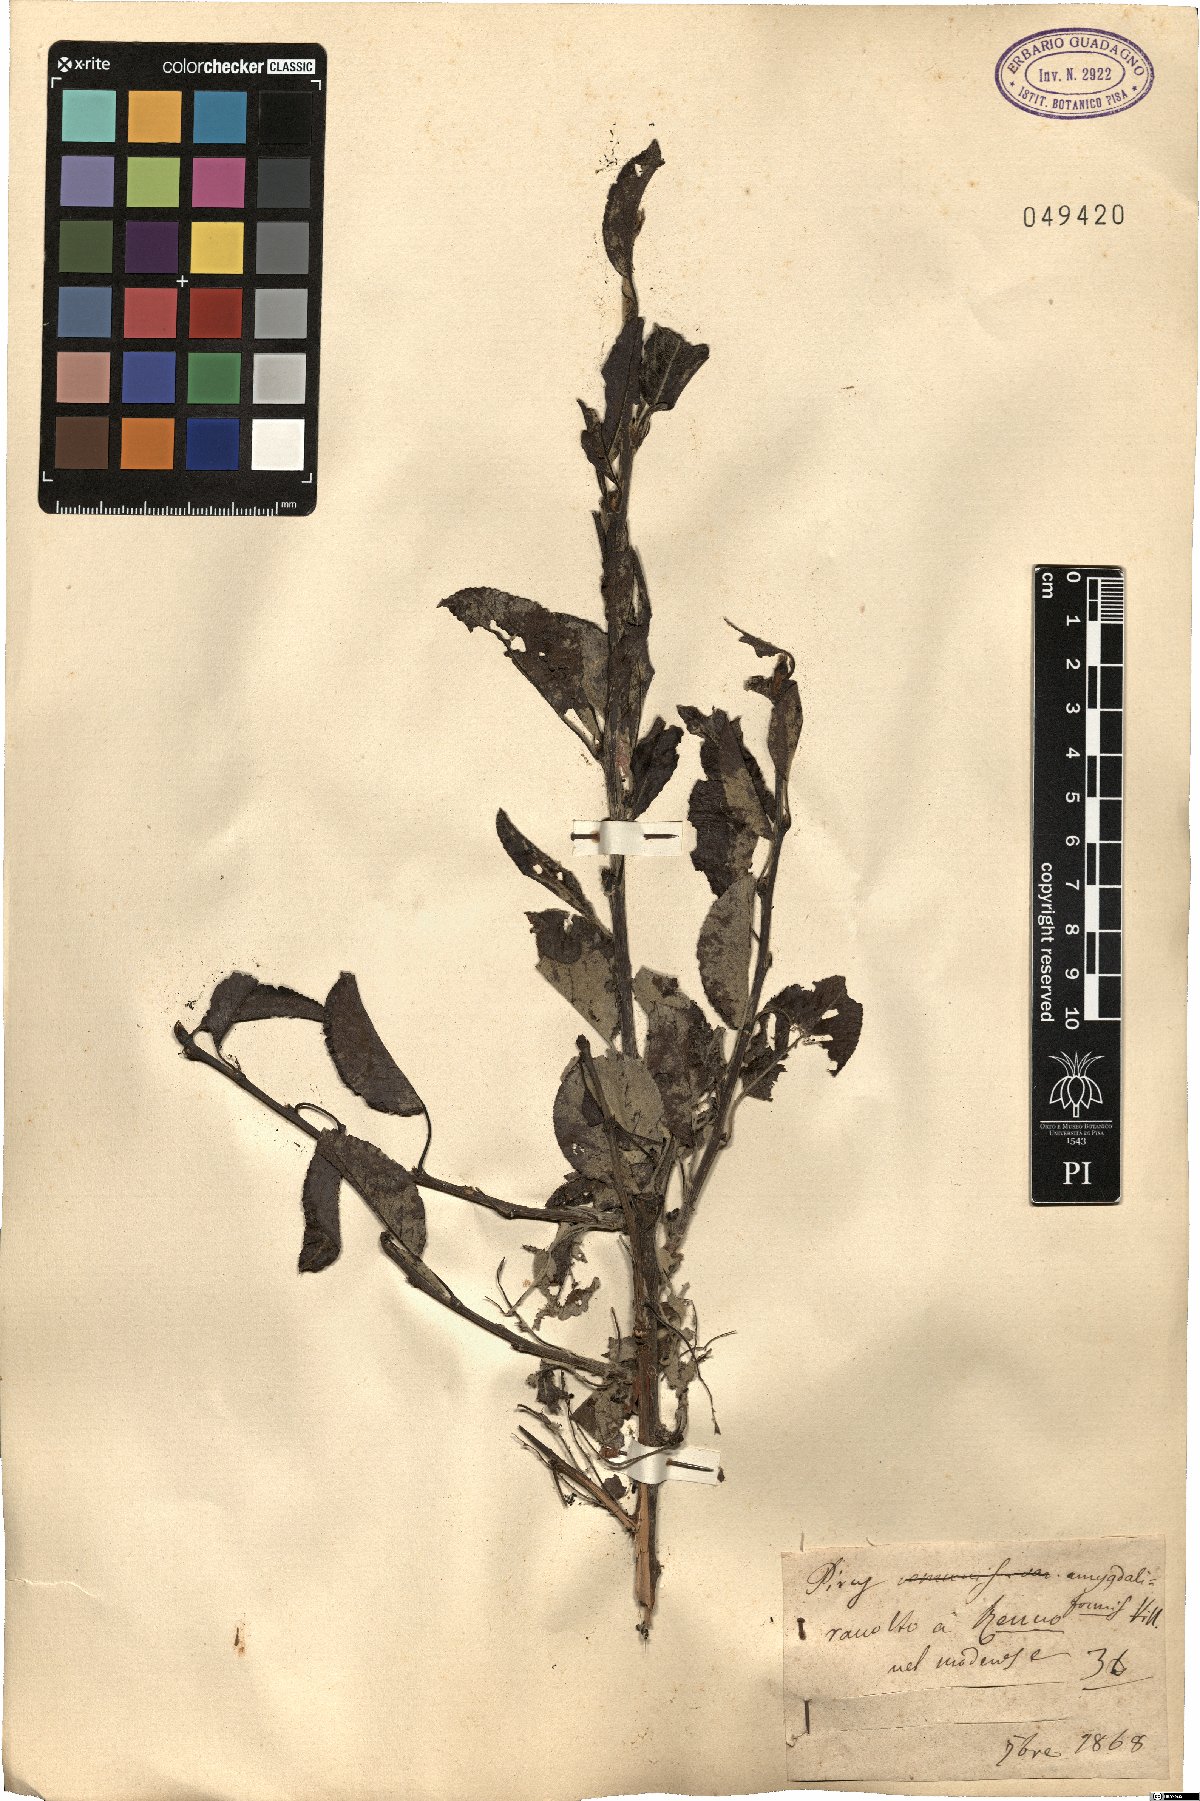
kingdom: Plantae
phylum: Tracheophyta
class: Magnoliopsida
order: Rosales
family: Rosaceae
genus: Pyrus
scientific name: Pyrus spinosa
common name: Almond-leaf pear
